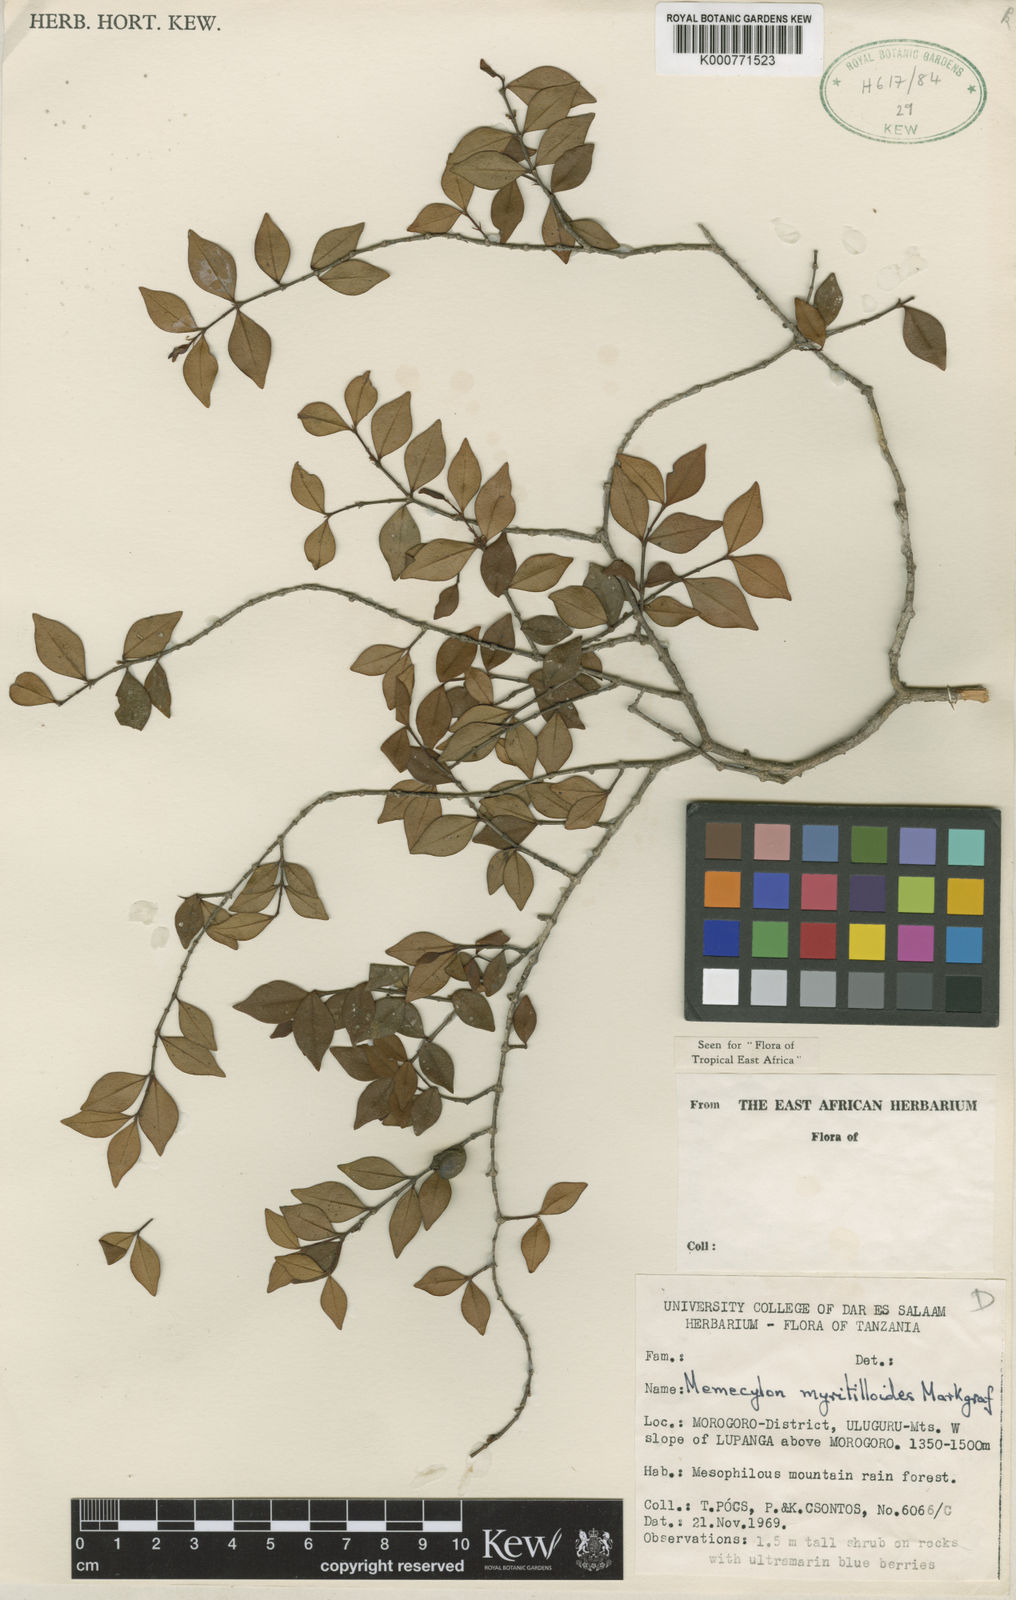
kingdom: Plantae
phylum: Tracheophyta
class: Magnoliopsida
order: Myrtales
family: Melastomataceae
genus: Memecylon
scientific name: Memecylon myrtilloides
